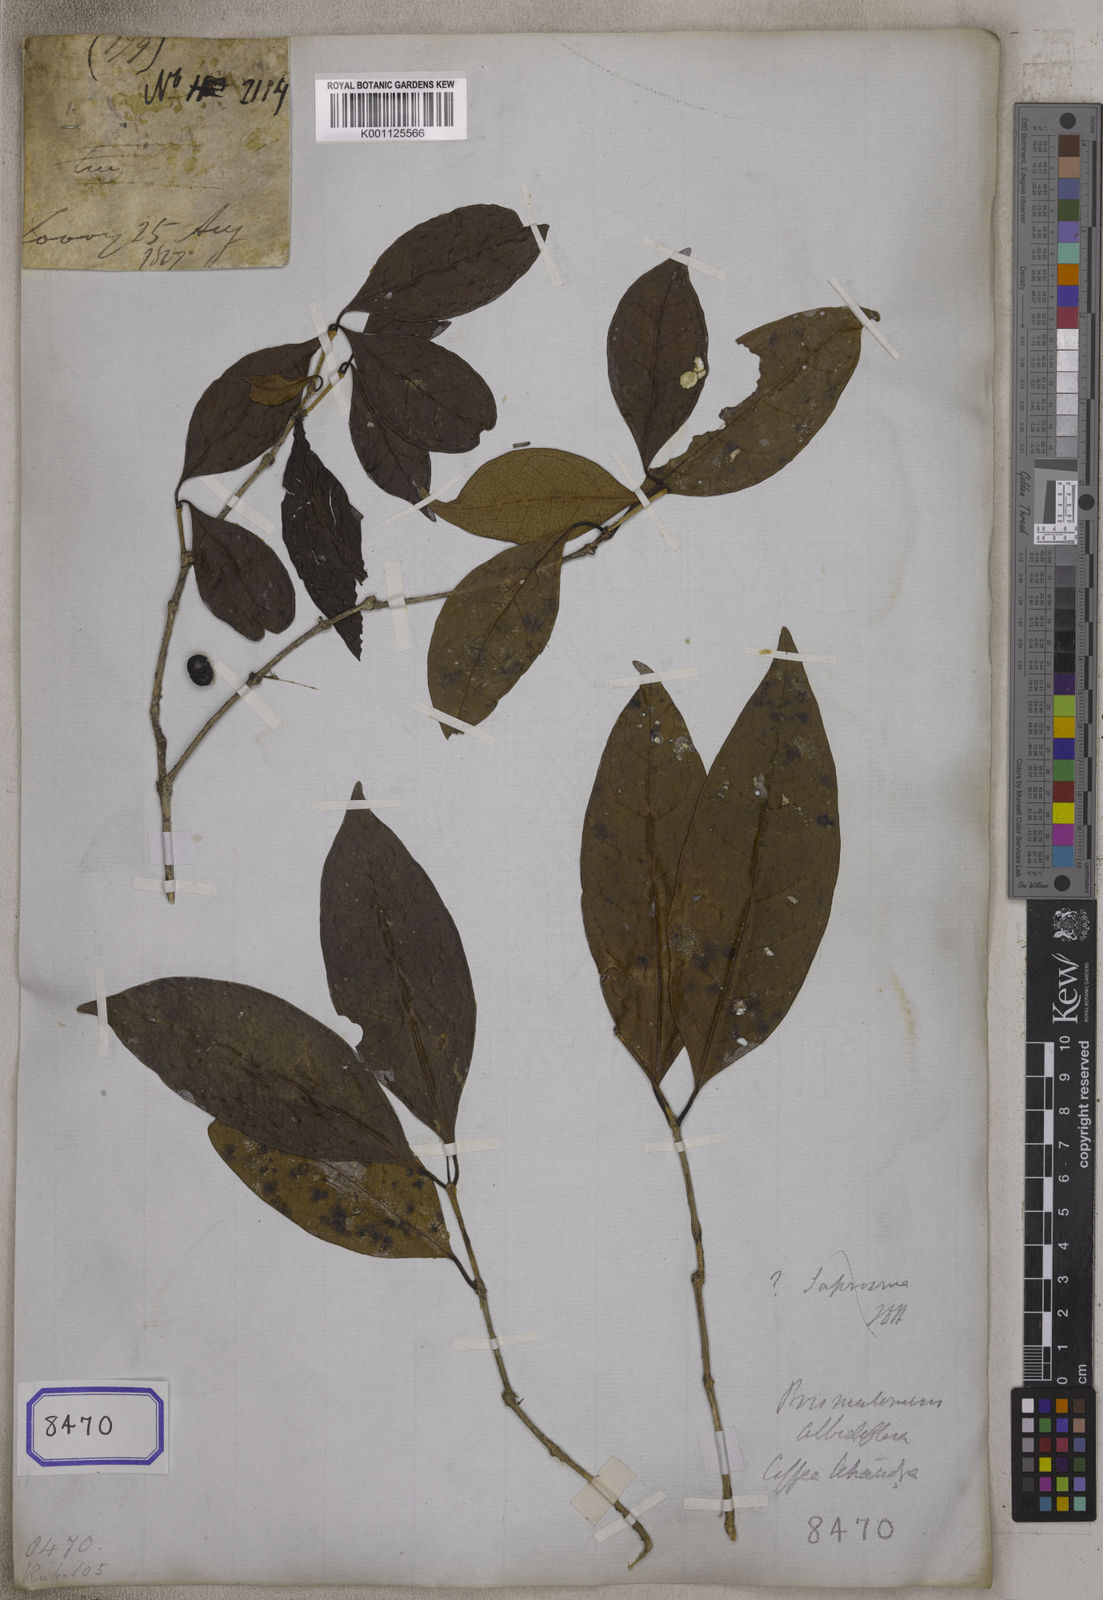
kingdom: Plantae
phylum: Tracheophyta
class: Magnoliopsida
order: Gentianales
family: Rubiaceae
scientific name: Rubiaceae
